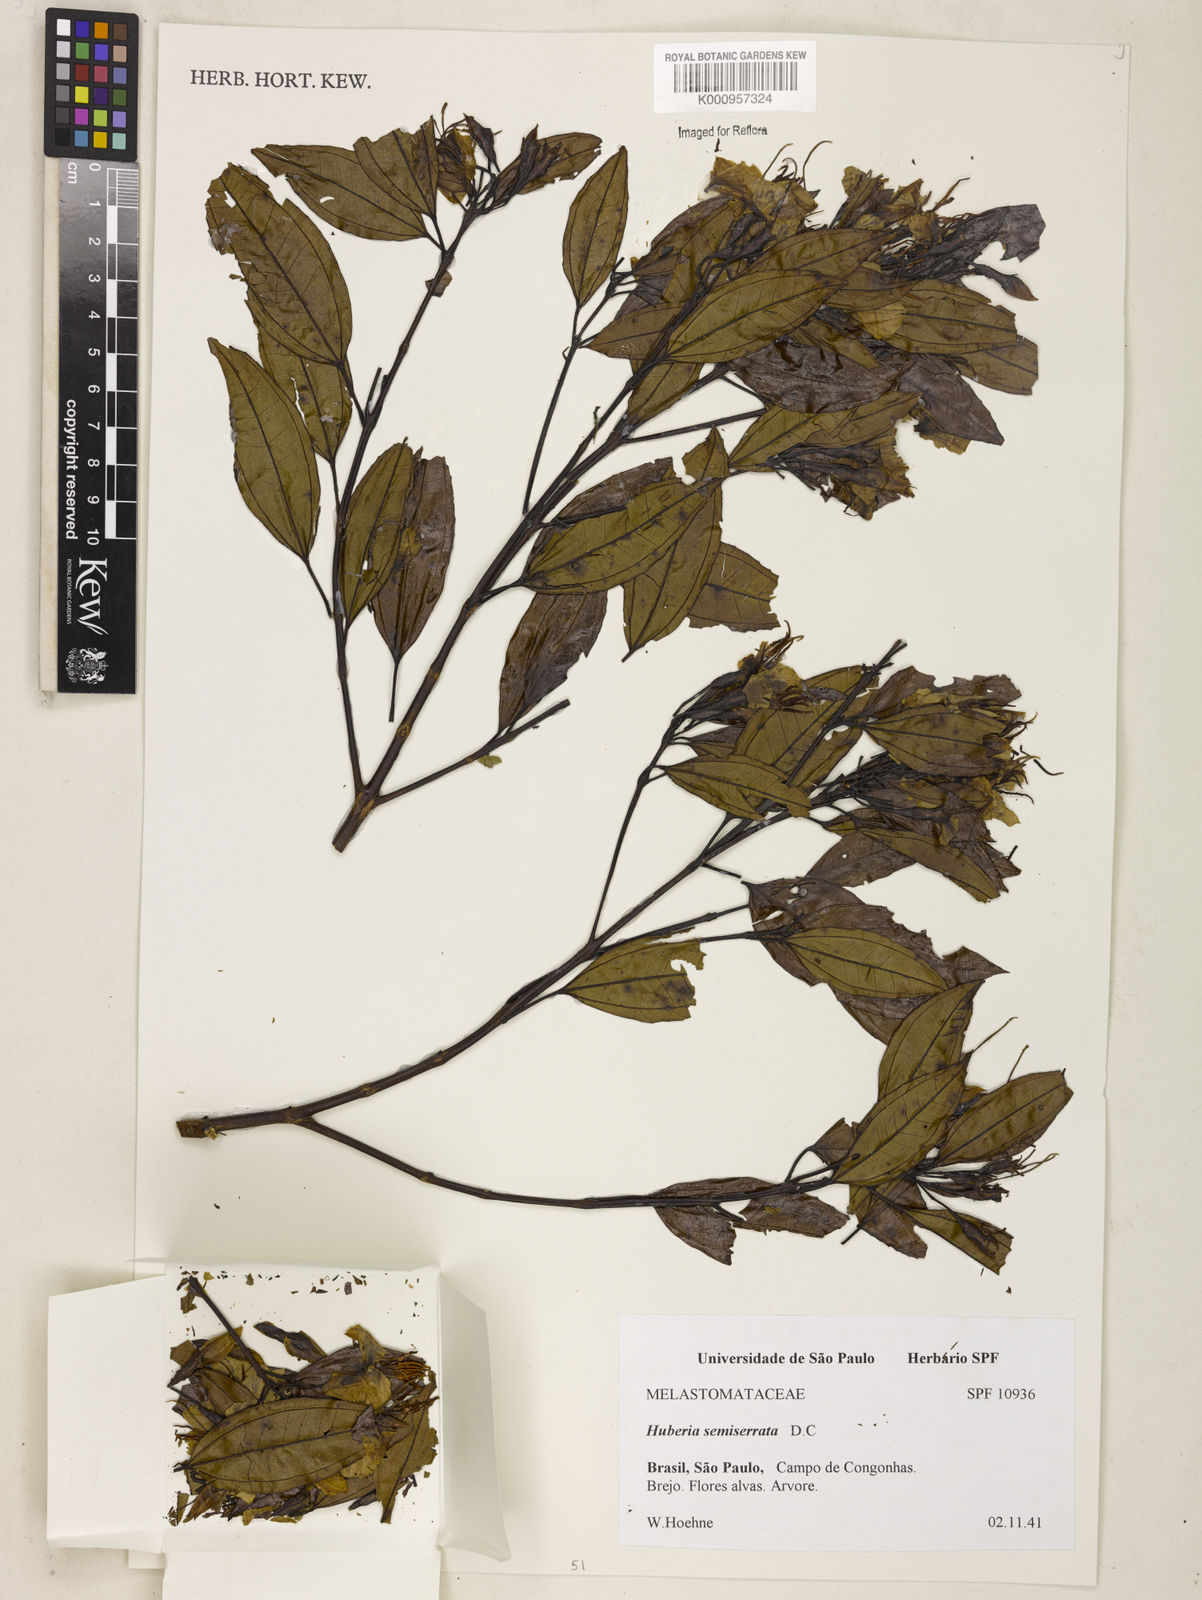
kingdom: Plantae
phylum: Tracheophyta
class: Magnoliopsida
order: Myrtales
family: Melastomataceae
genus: Huberia
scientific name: Huberia semiserrata
